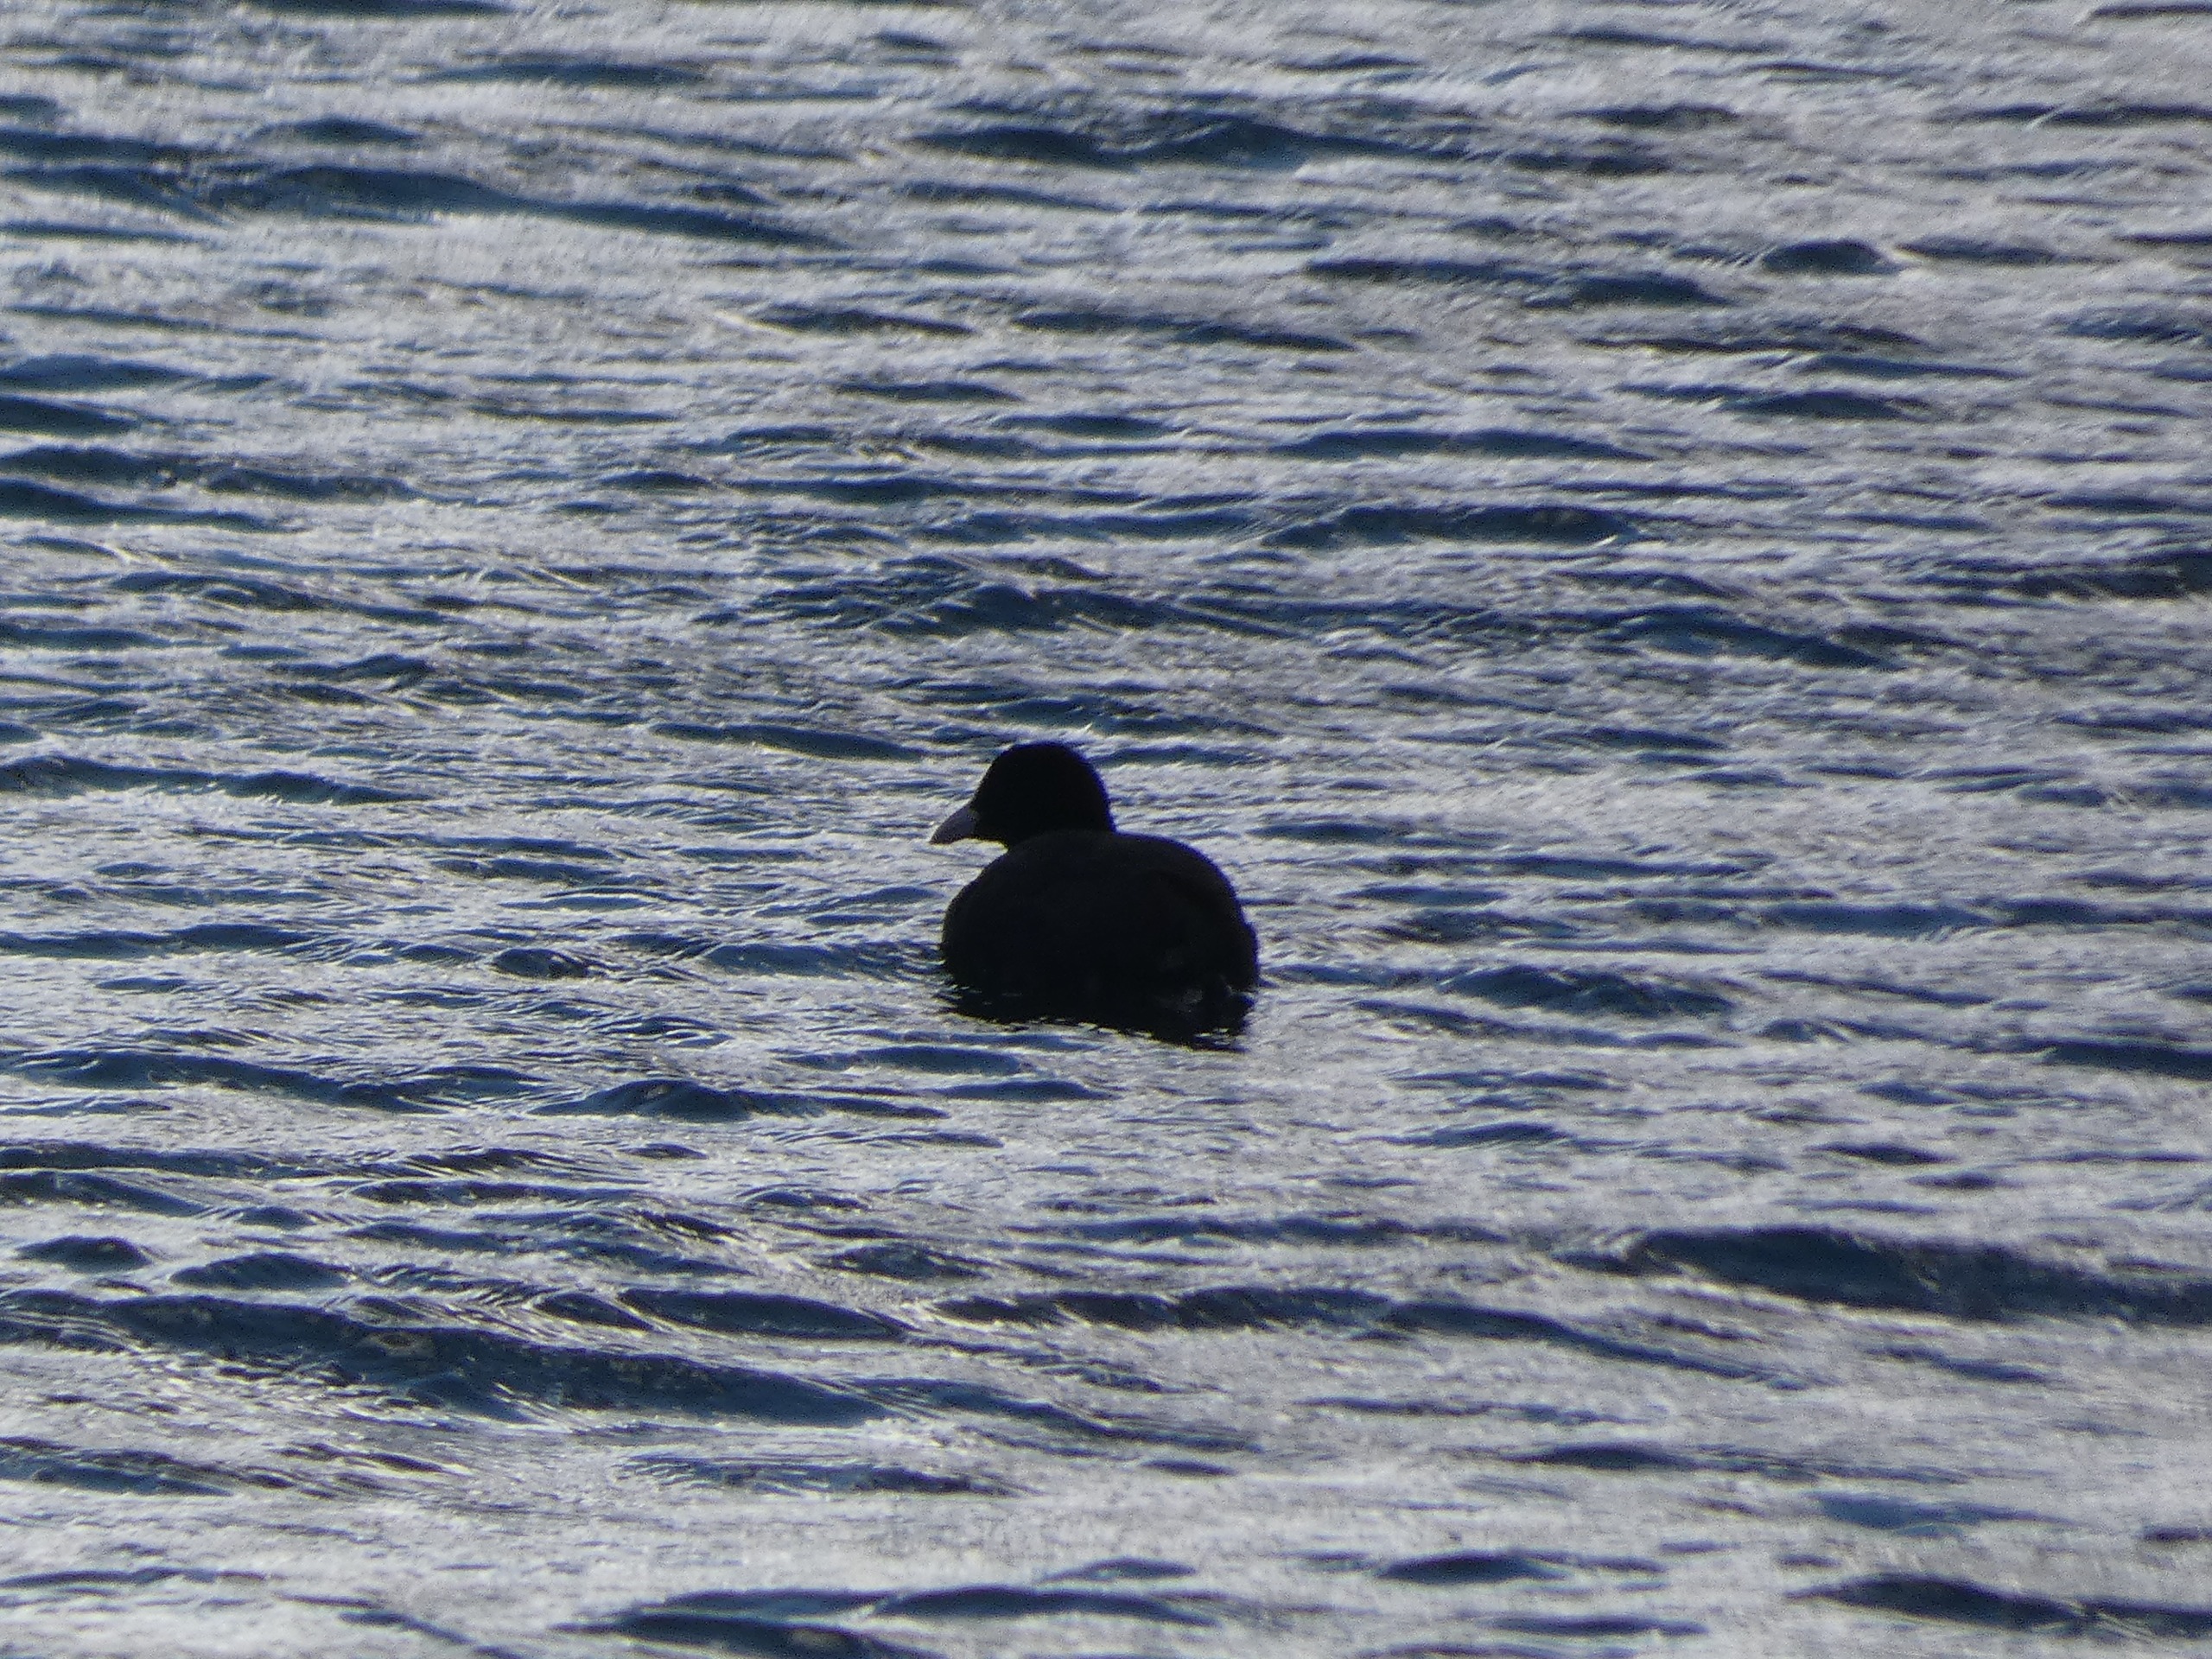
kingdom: Animalia
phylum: Chordata
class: Aves
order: Gruiformes
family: Rallidae
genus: Fulica
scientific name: Fulica atra
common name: Blishøne
